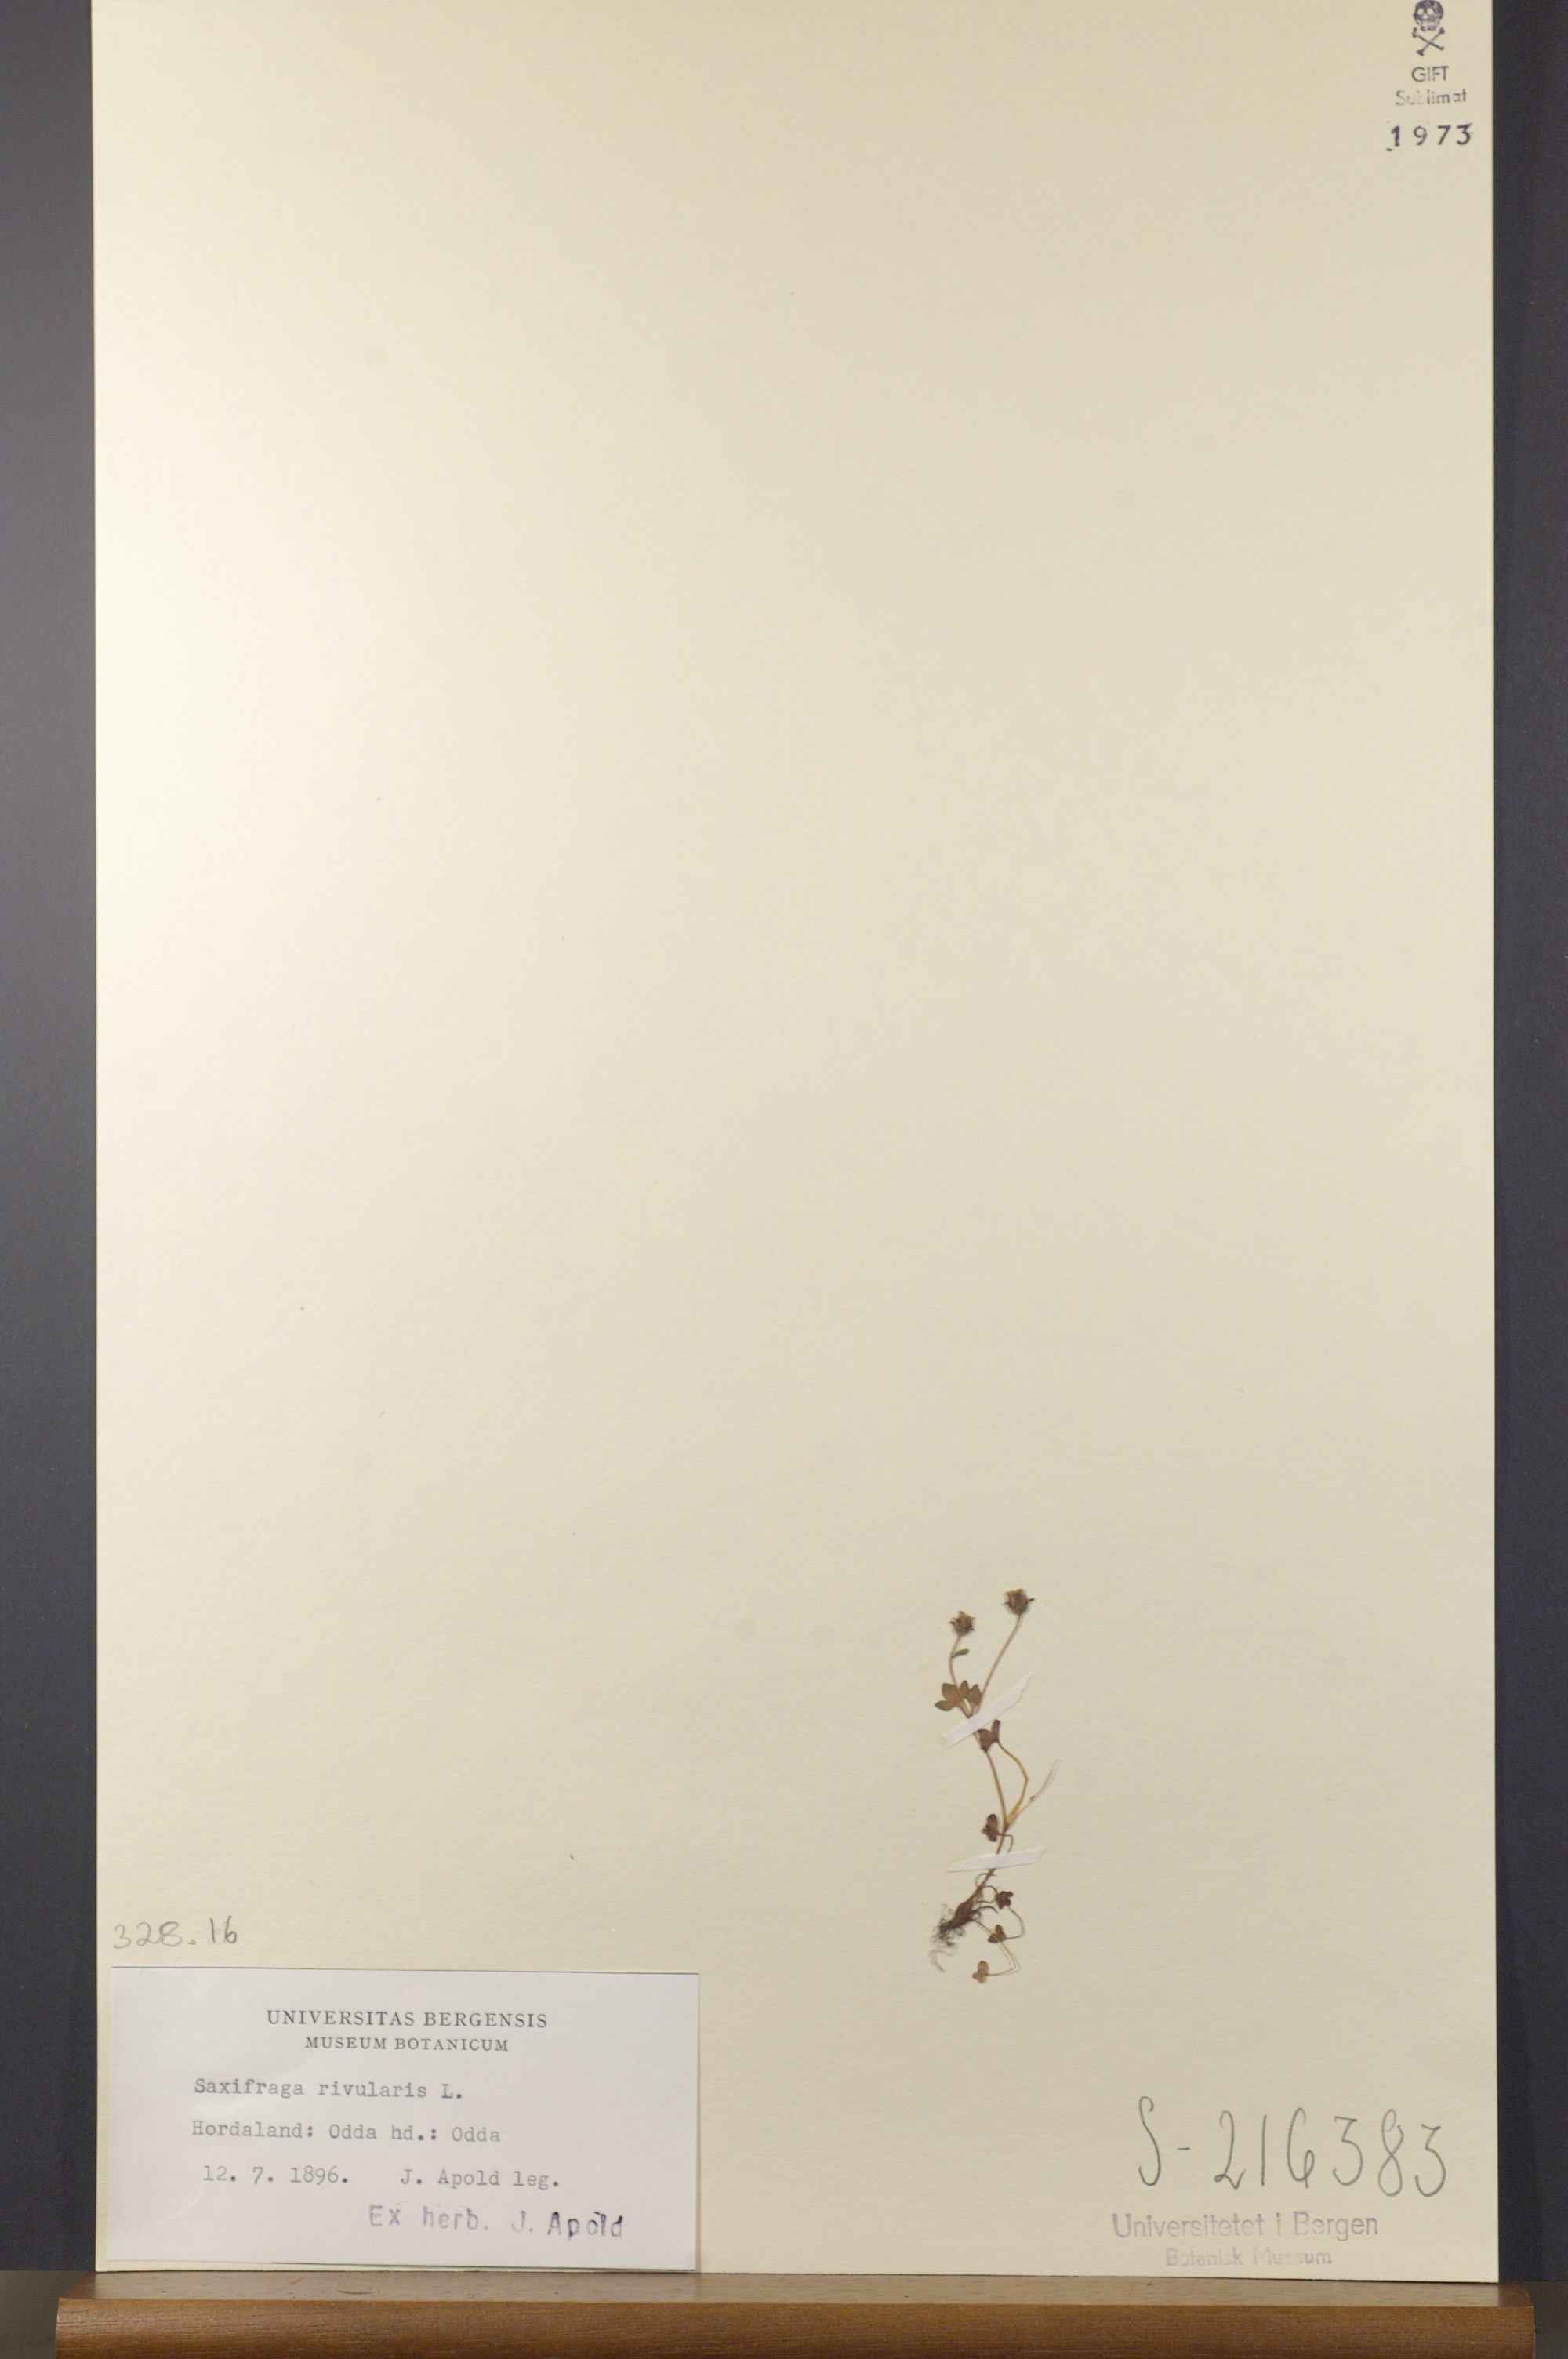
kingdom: Plantae
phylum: Tracheophyta
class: Magnoliopsida
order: Saxifragales
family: Saxifragaceae
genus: Saxifraga
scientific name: Saxifraga rivularis
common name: Highland saxifrage
